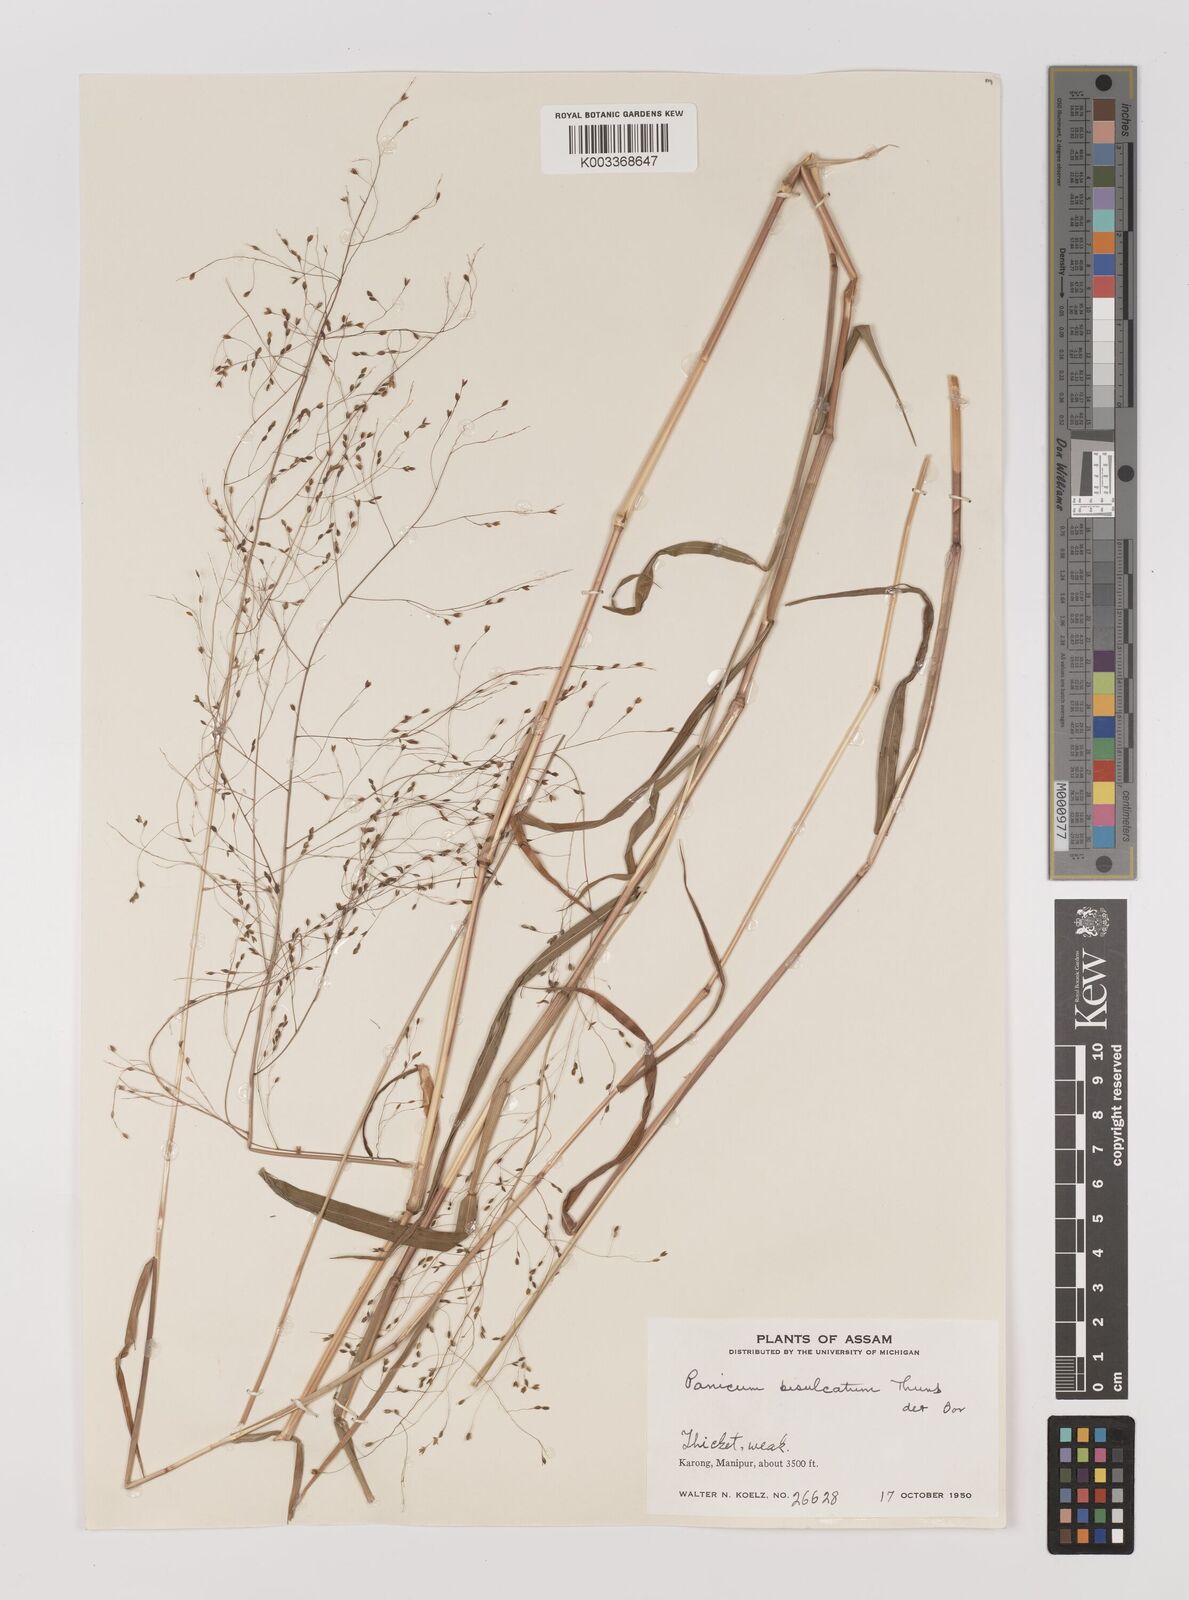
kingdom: Plantae
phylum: Tracheophyta
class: Liliopsida
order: Poales
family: Poaceae
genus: Panicum
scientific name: Panicum bisulcatum
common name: Japanese panicgrass
